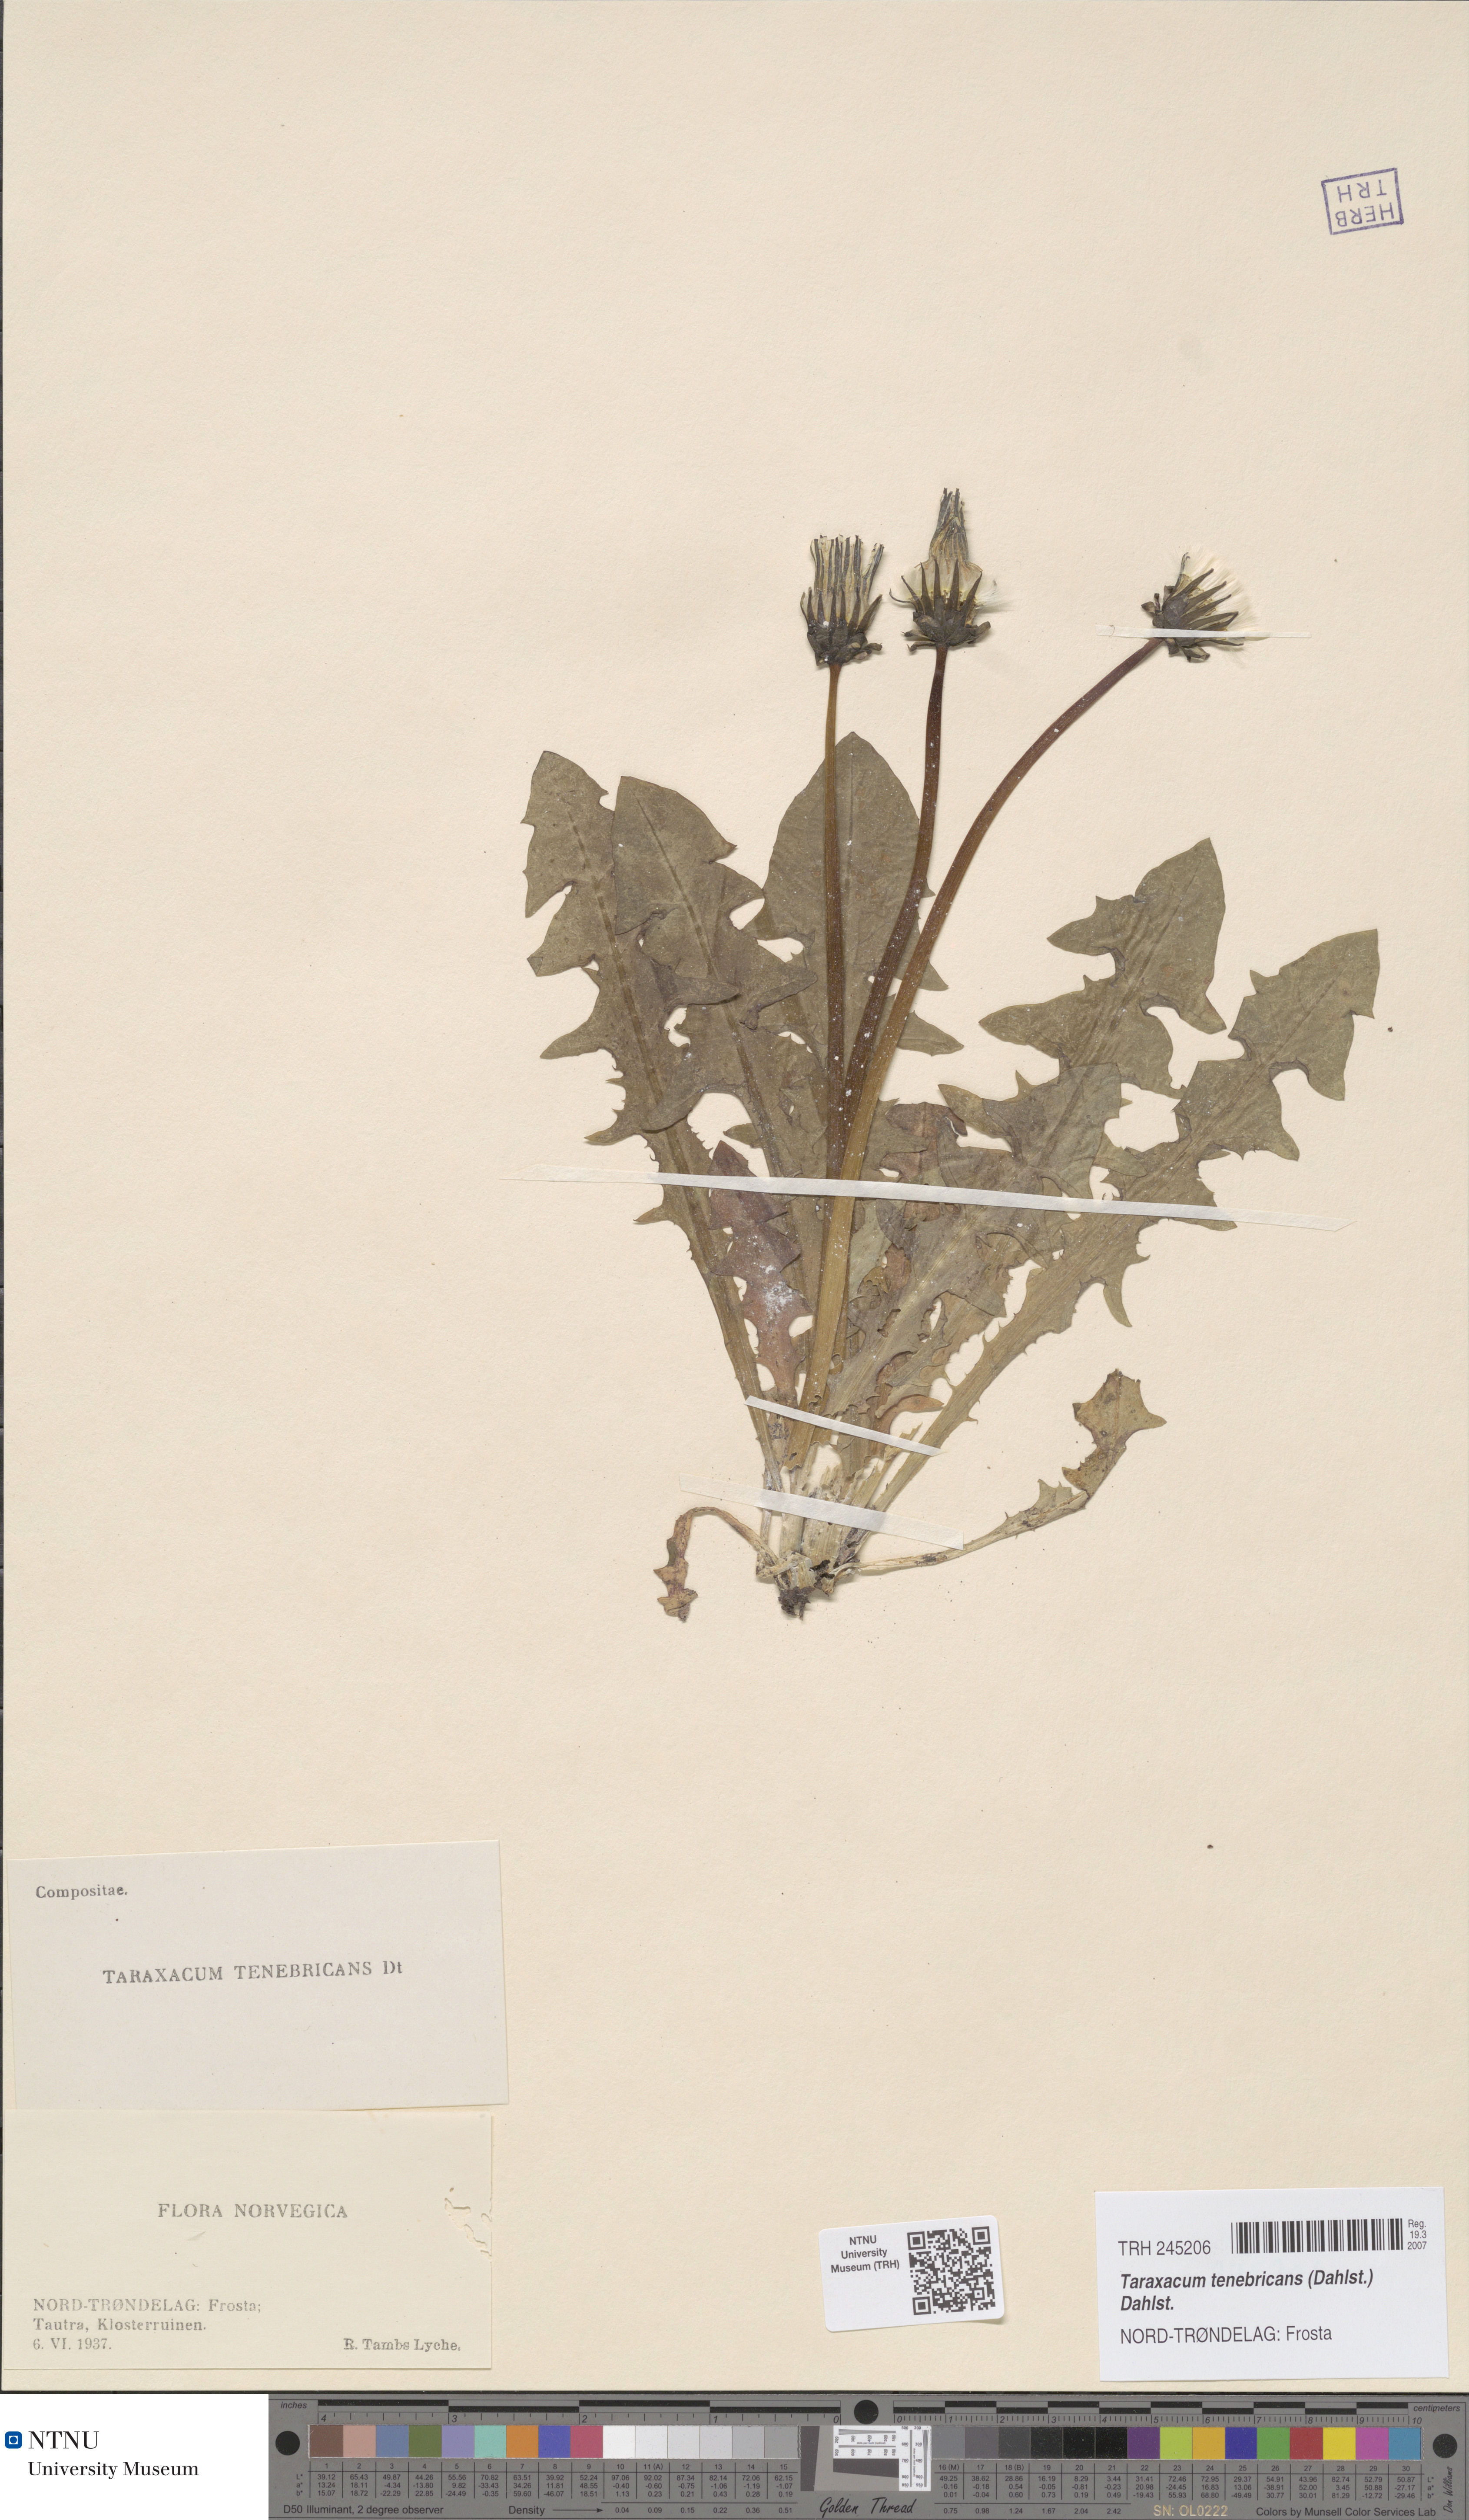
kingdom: Plantae
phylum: Tracheophyta
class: Magnoliopsida
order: Asterales
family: Asteraceae
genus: Taraxacum
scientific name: Taraxacum tenebricans
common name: Shiny-leaved dandelion
